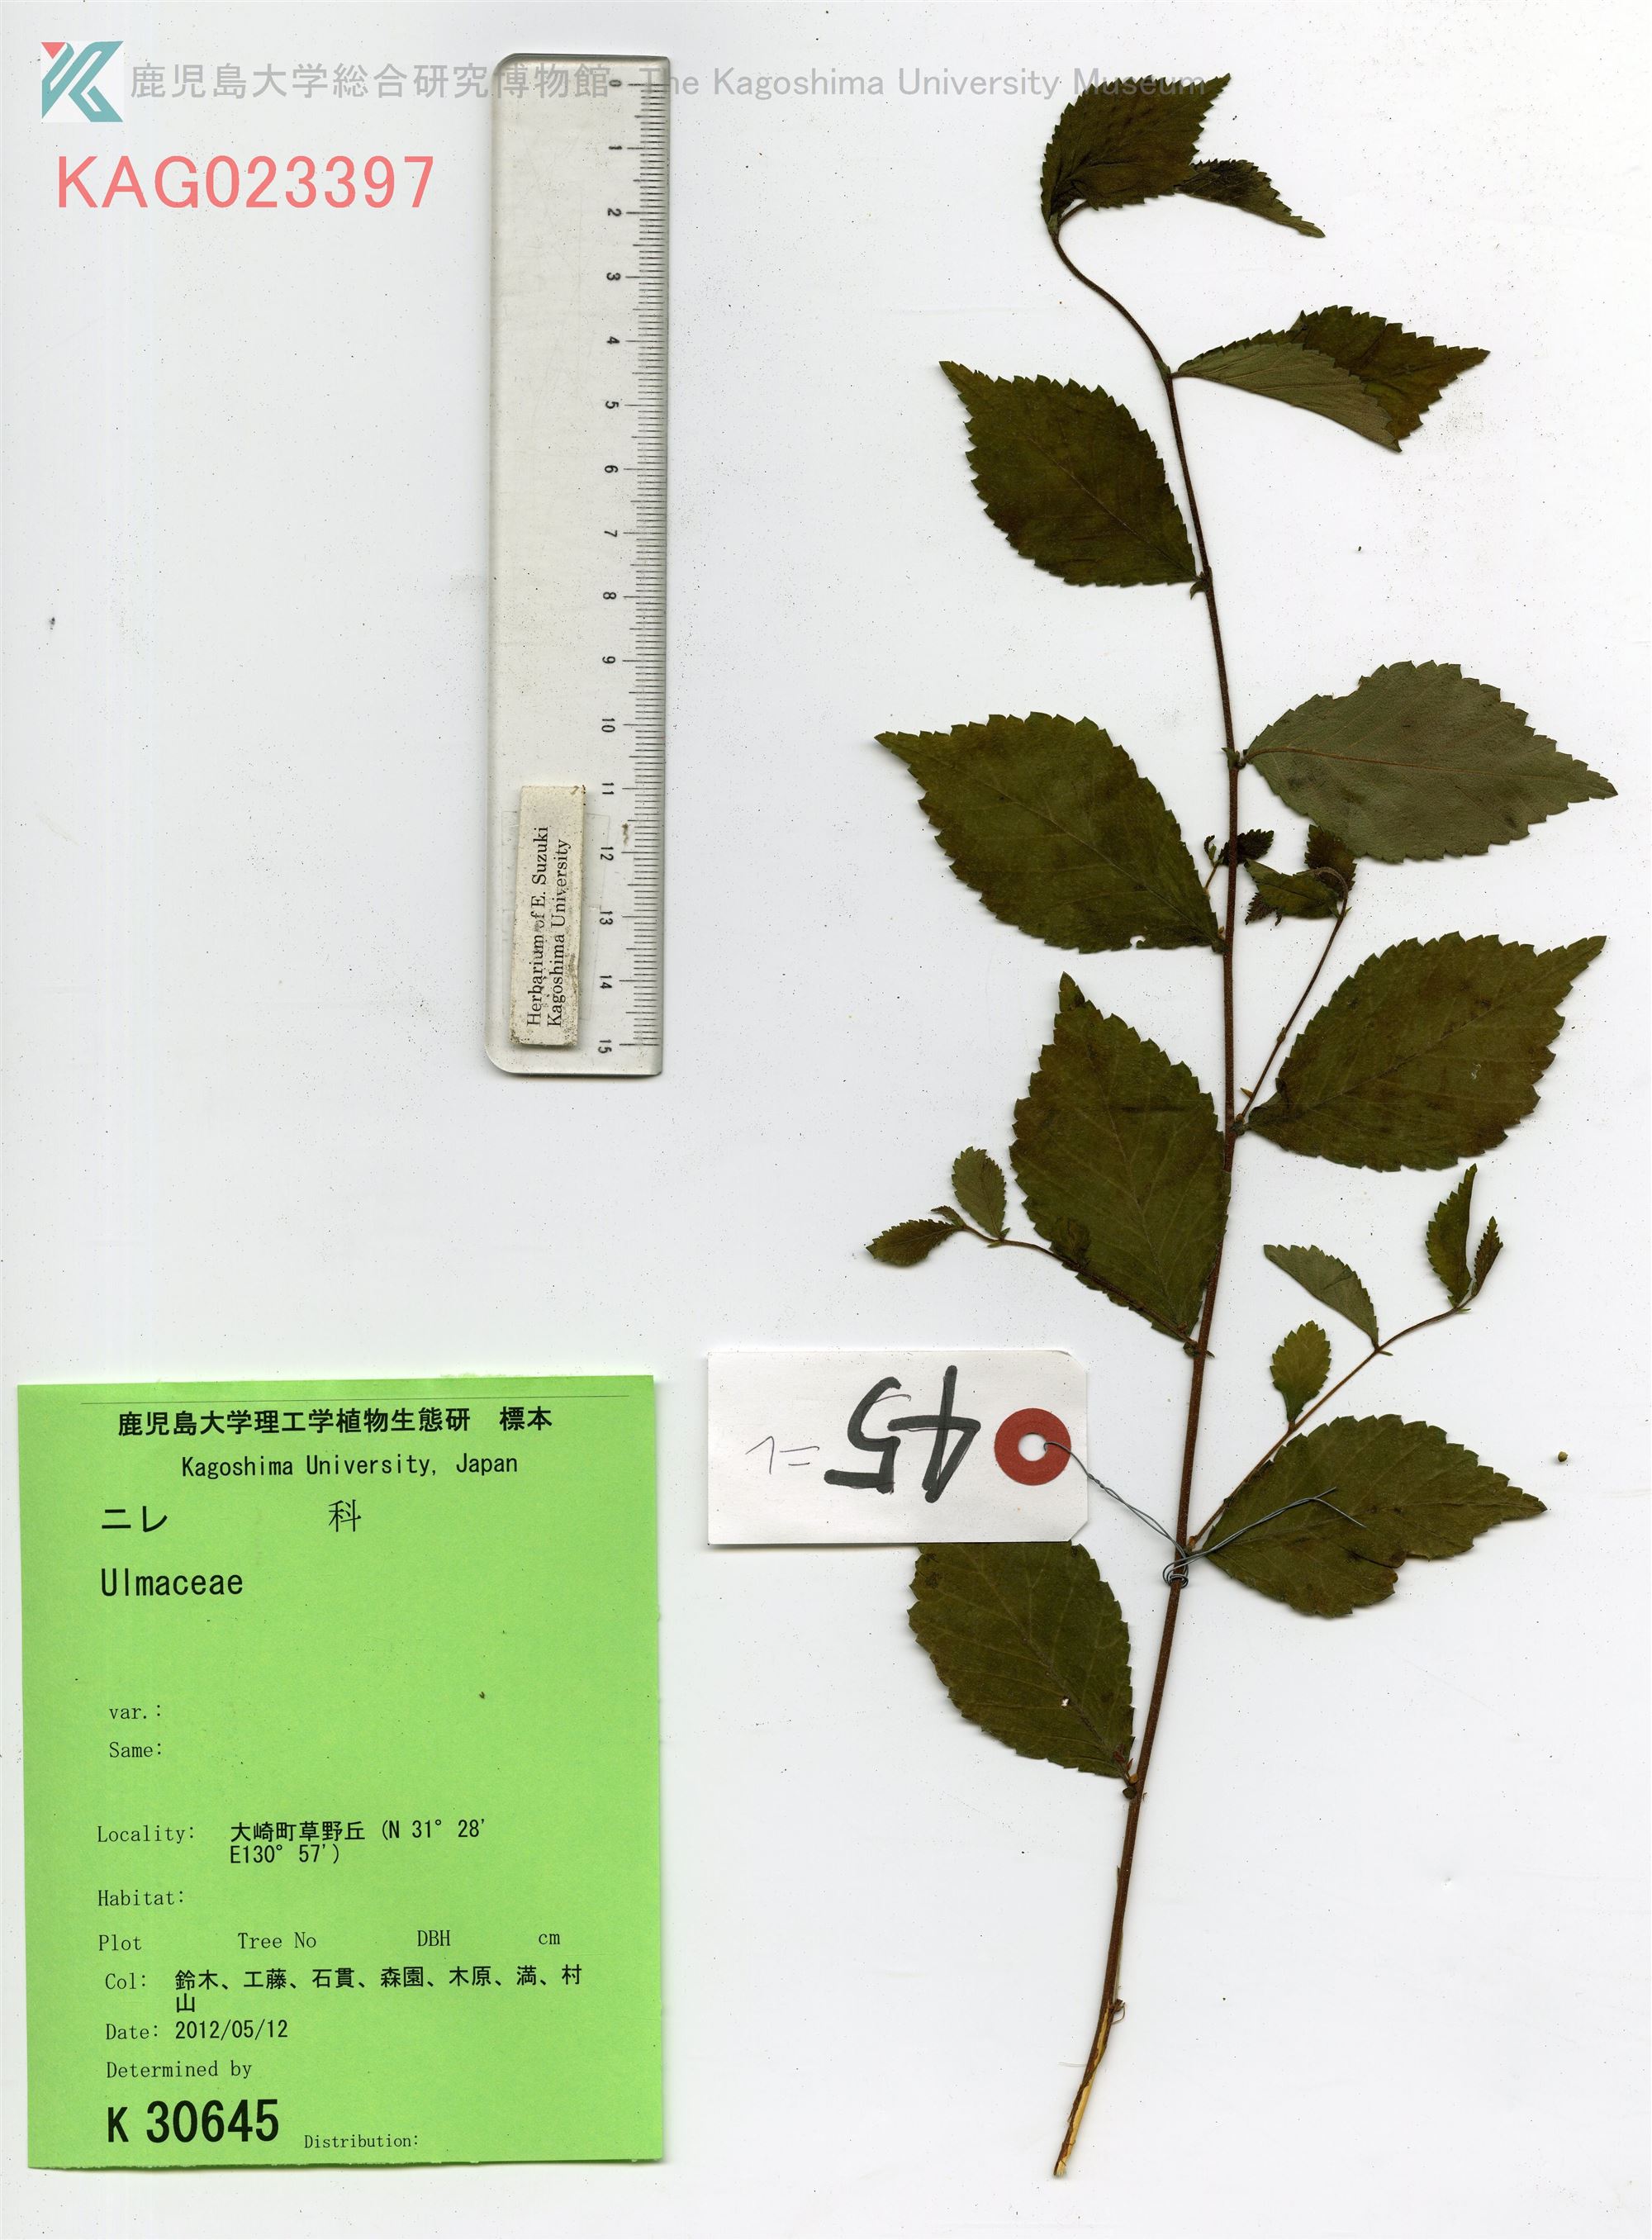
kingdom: Plantae
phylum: Tracheophyta
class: Magnoliopsida
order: Rosales
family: Ulmaceae
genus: Ulmus
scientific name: Ulmus davidiana
